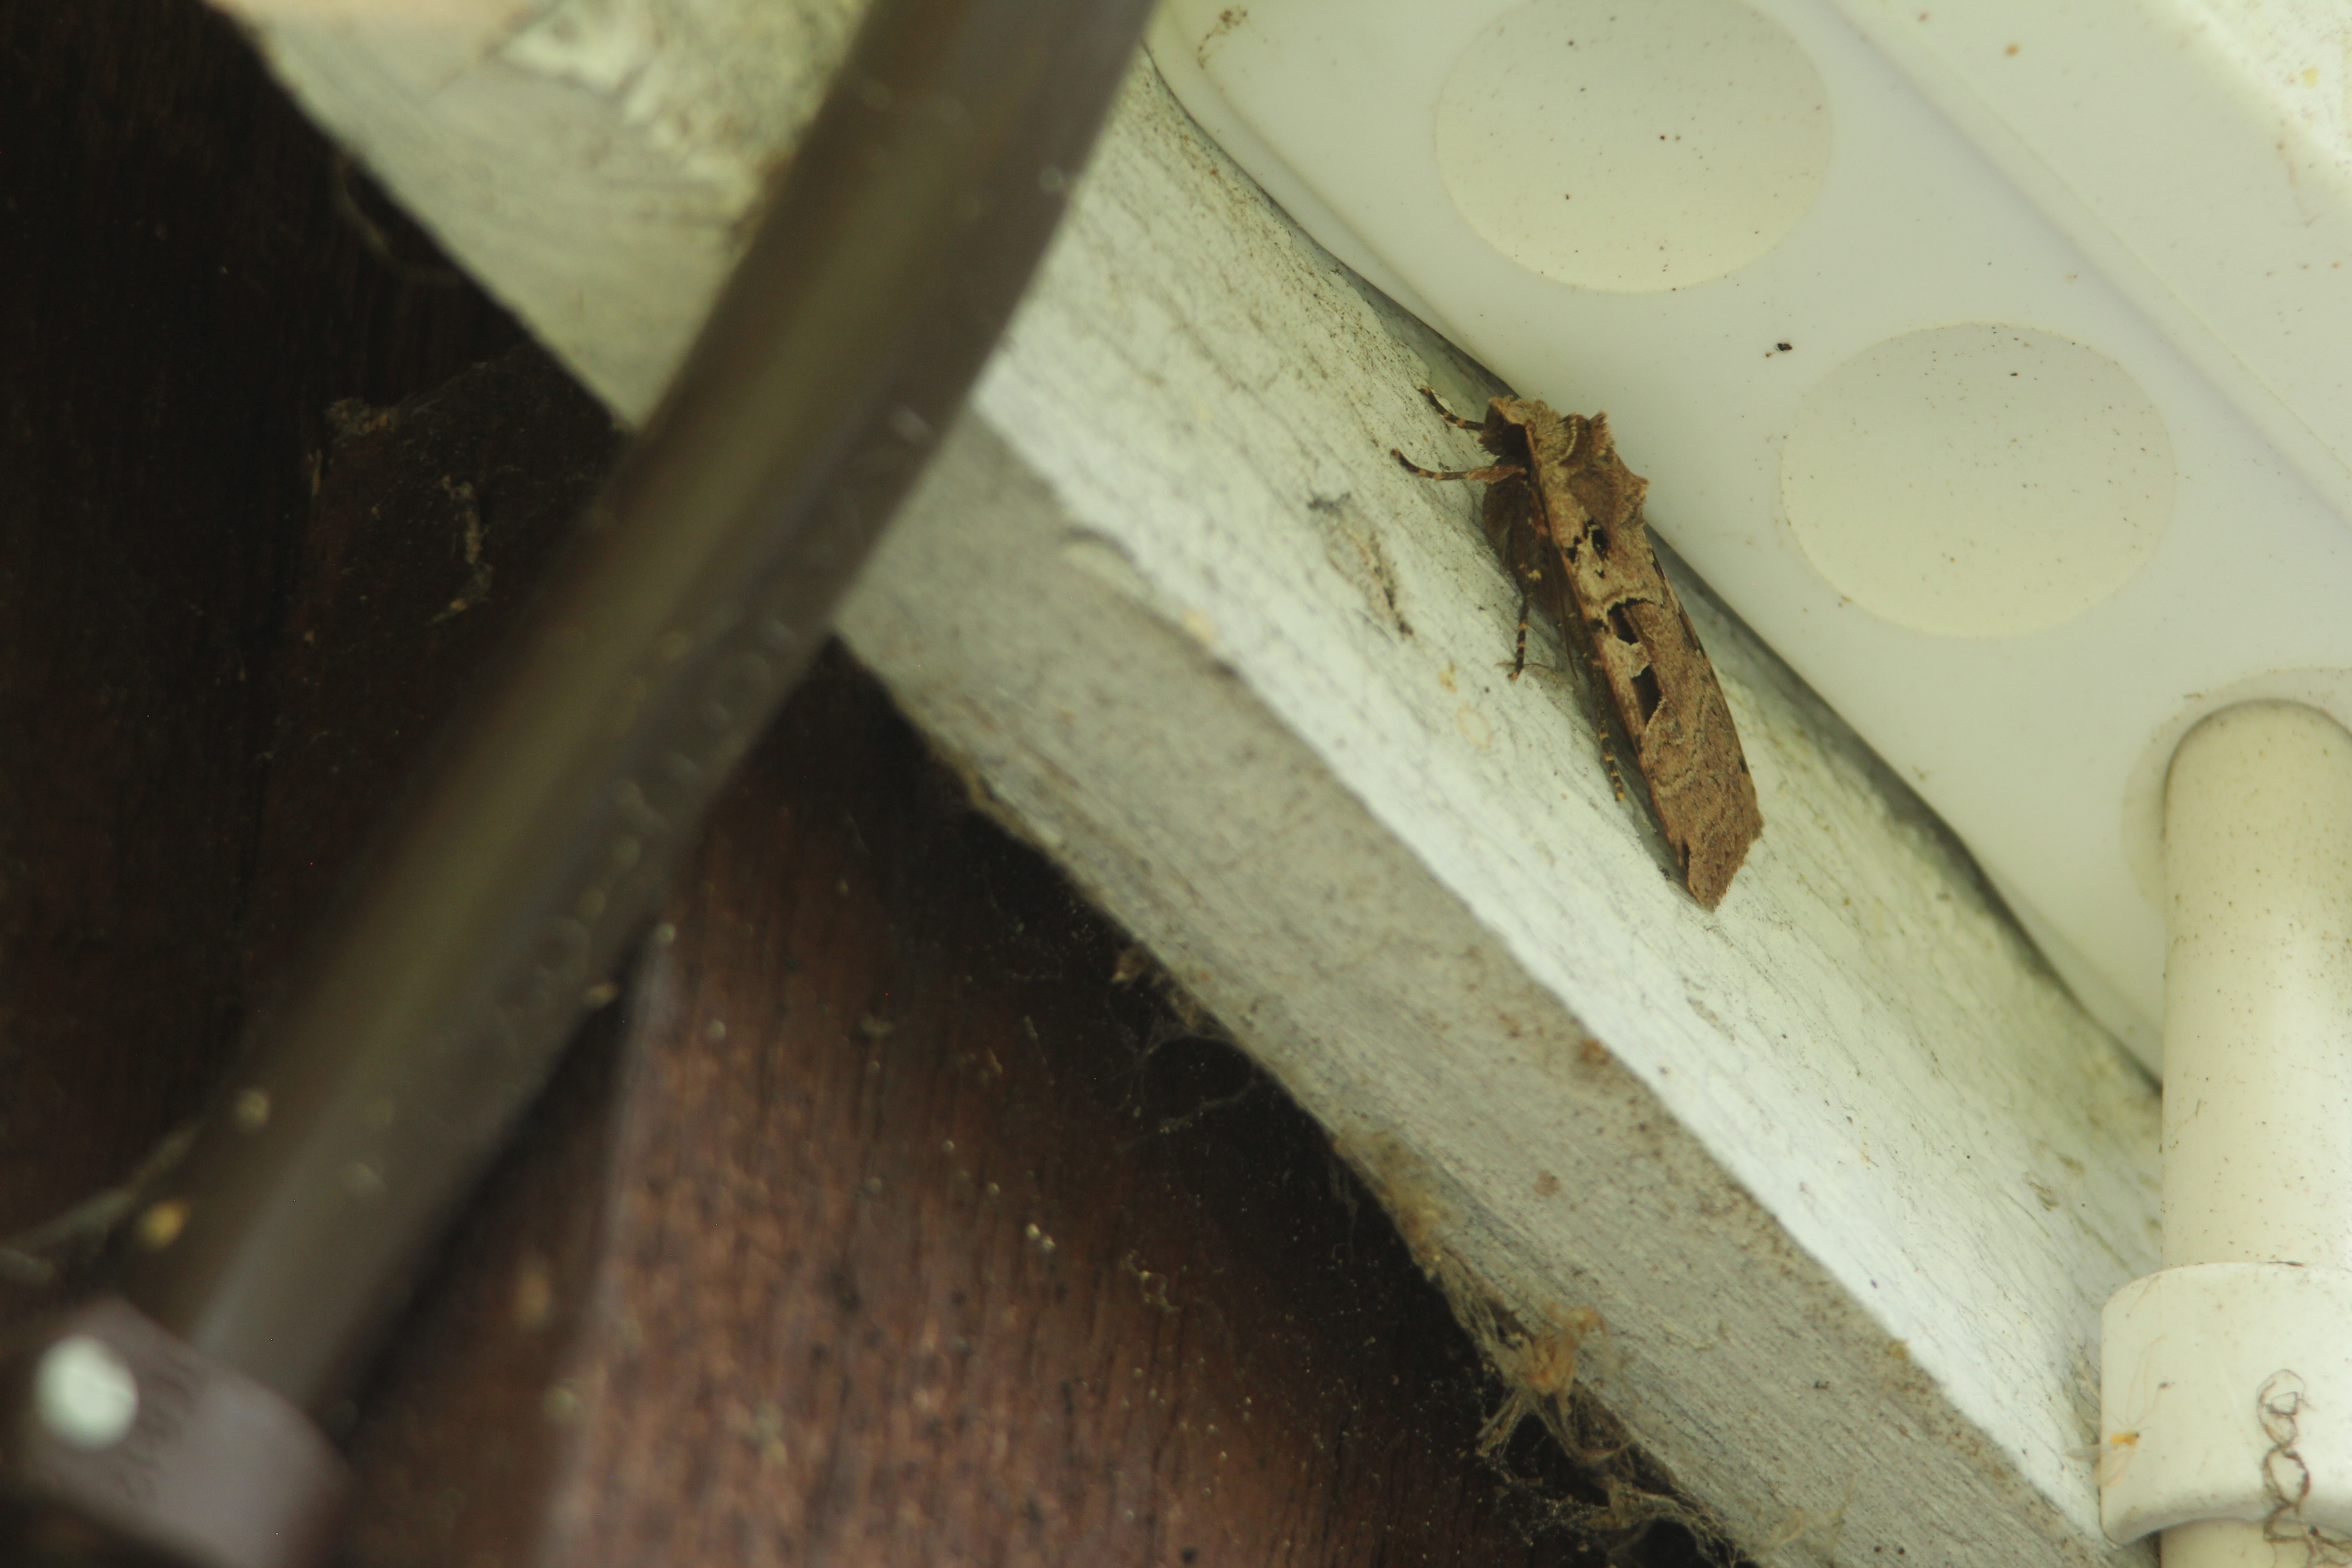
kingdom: Animalia
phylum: Arthropoda
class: Insecta
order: Lepidoptera
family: Noctuidae
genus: Xestia
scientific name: Xestia triangulum
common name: Double square-spot
